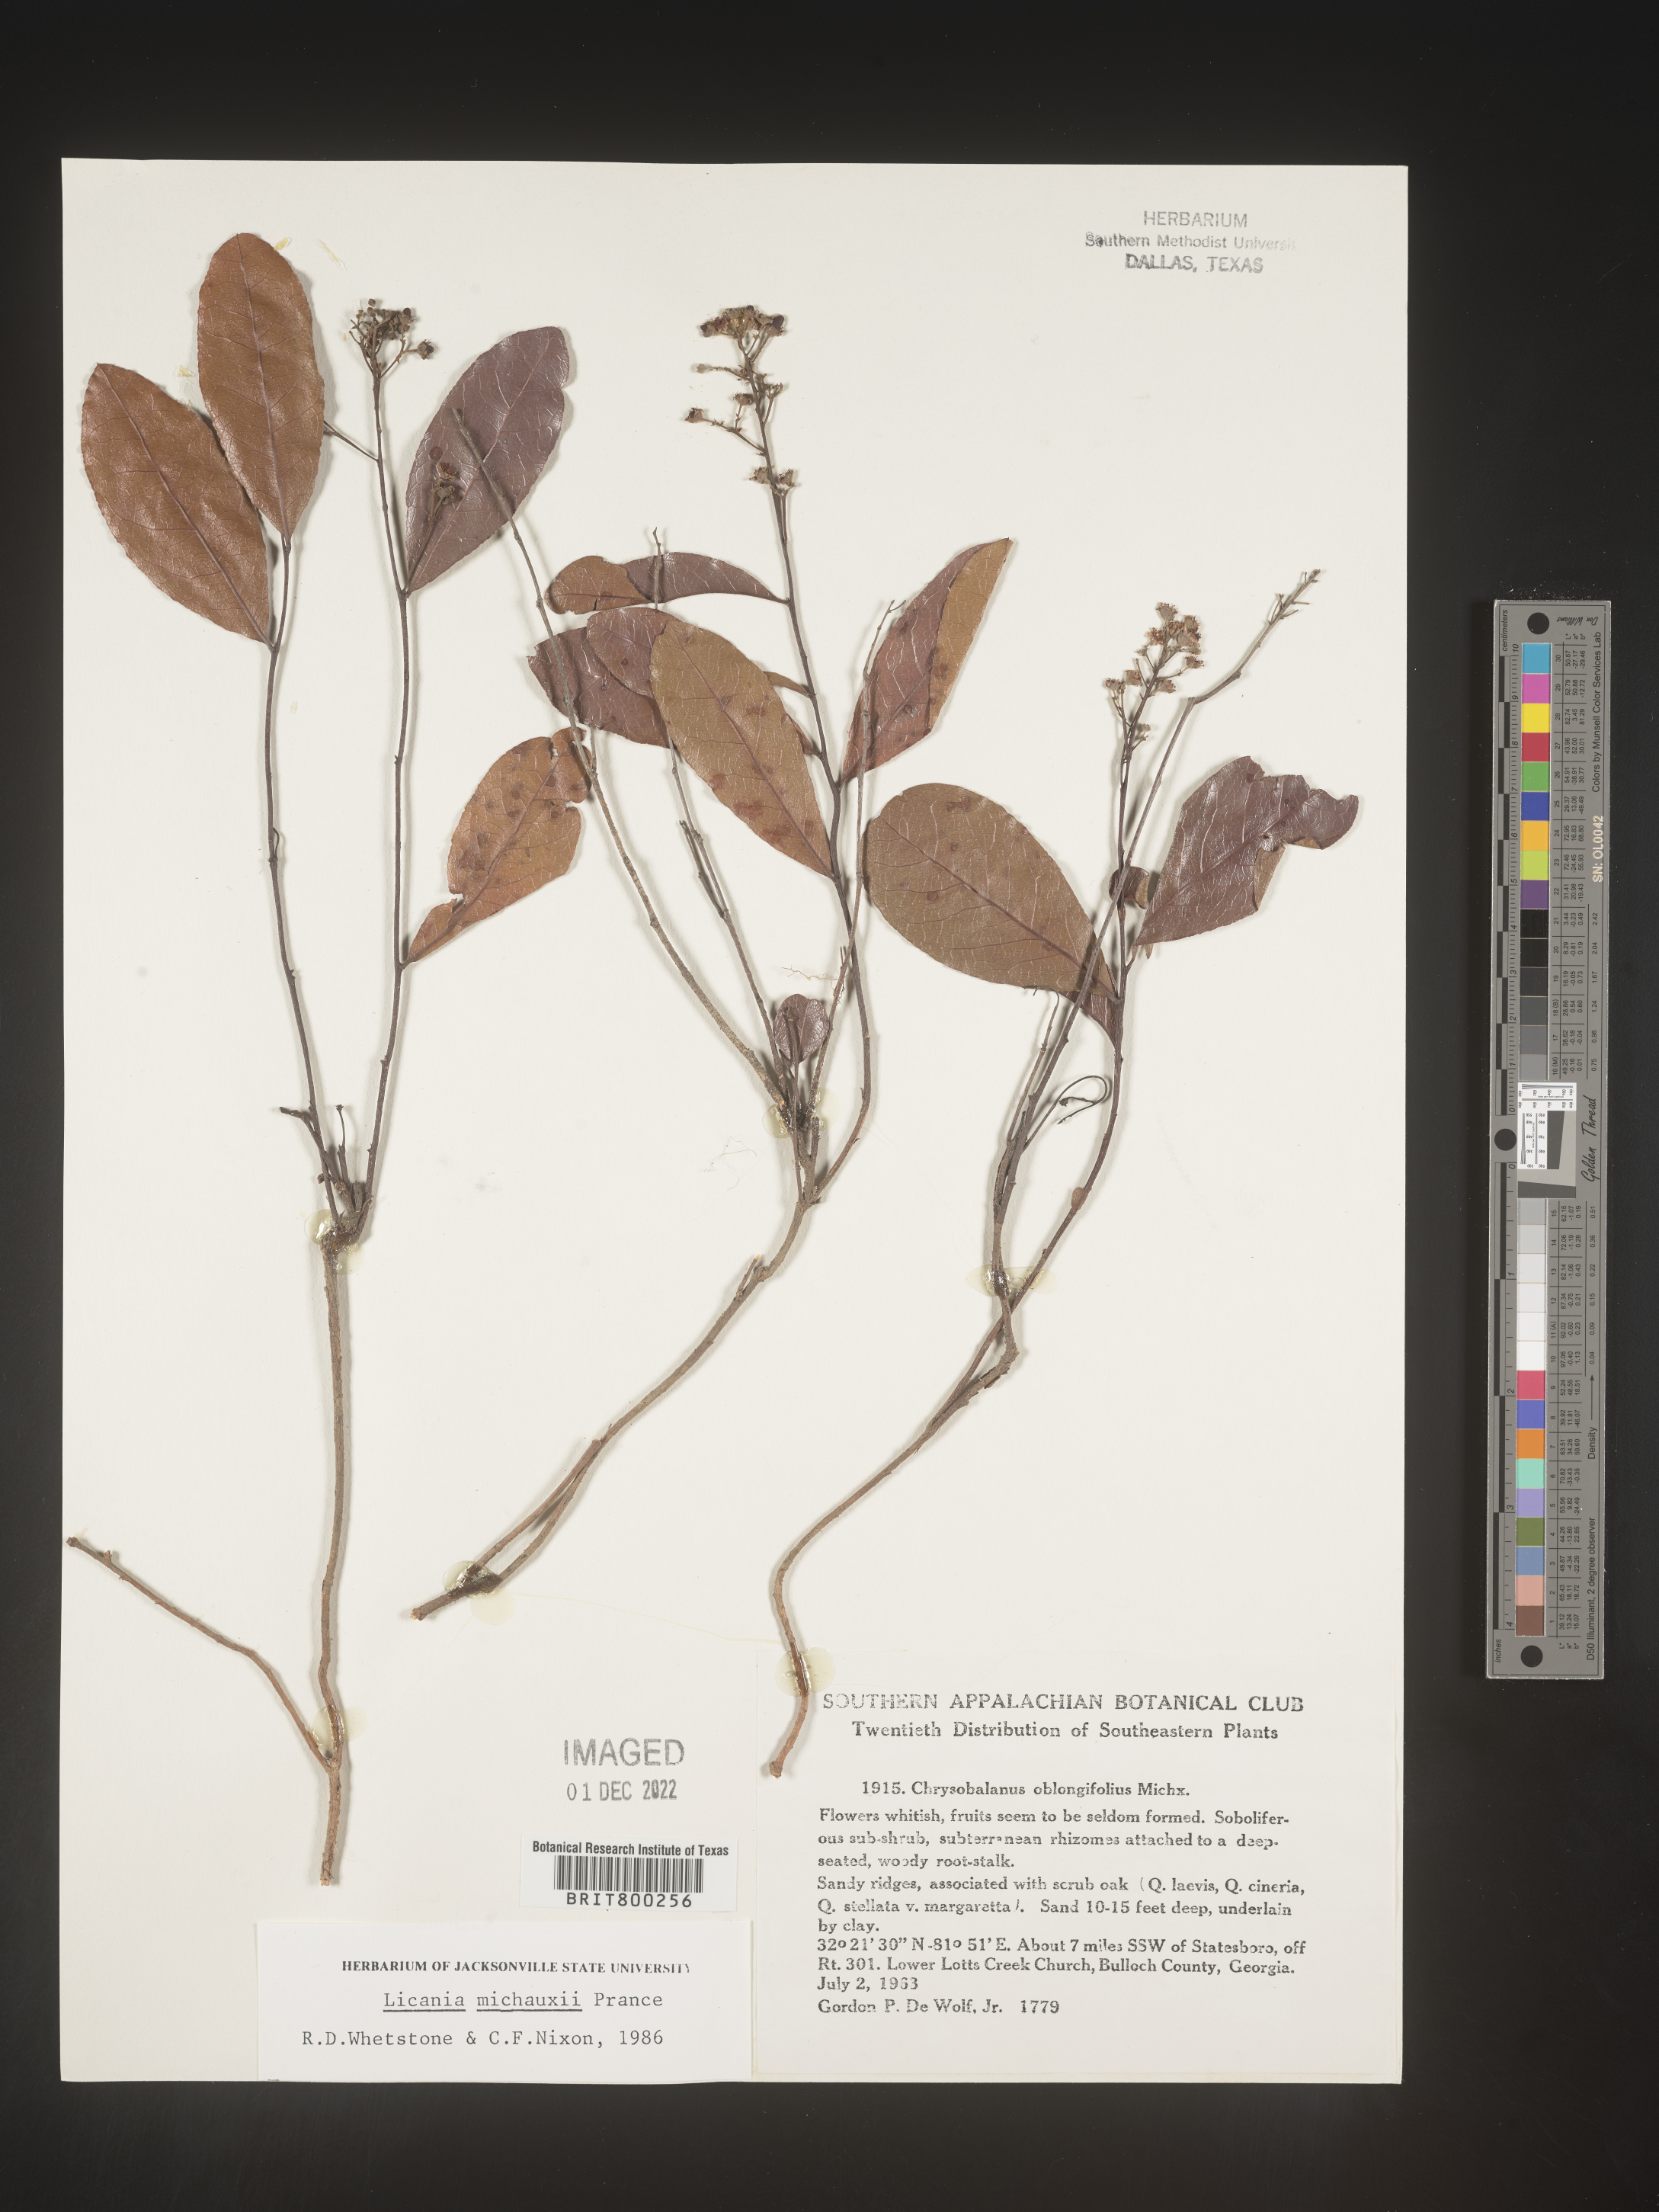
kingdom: Plantae
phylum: Tracheophyta
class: Magnoliopsida
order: Malpighiales
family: Chrysobalanaceae
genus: Geobalanus
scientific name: Geobalanus oblongifolius
